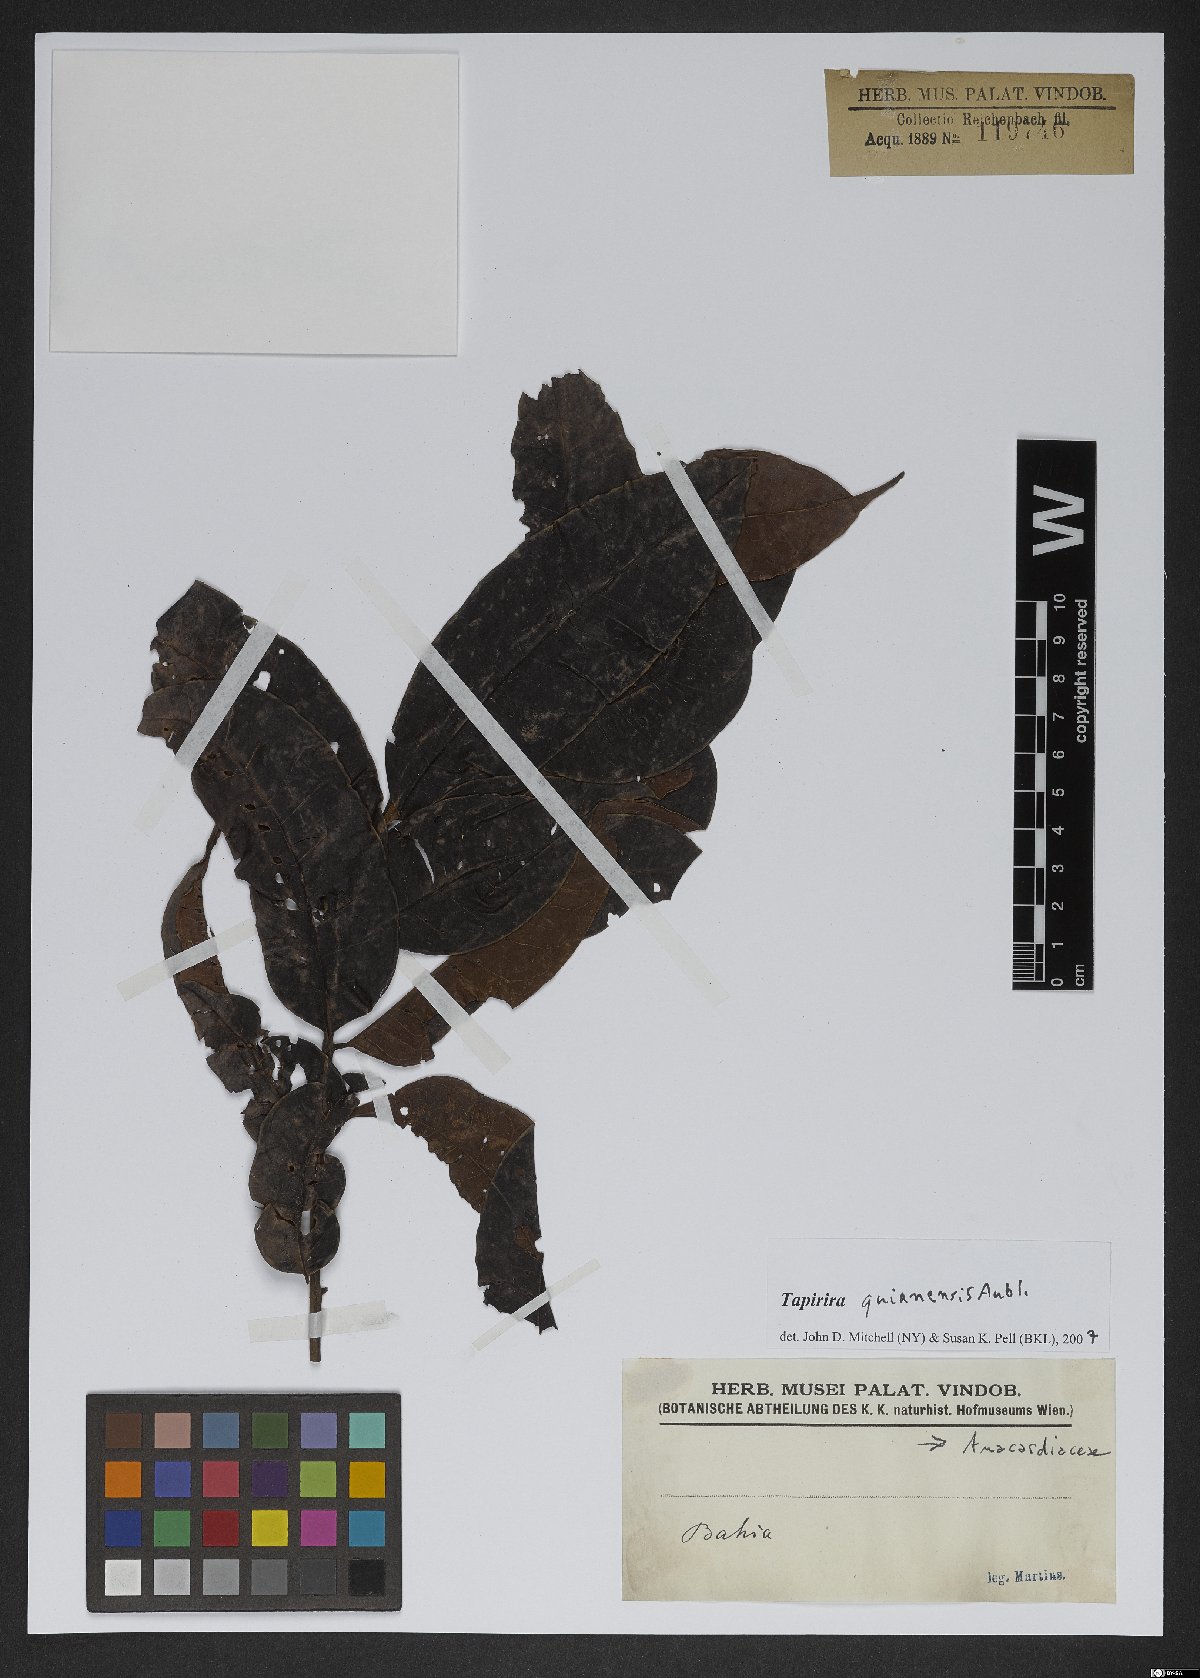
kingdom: Plantae
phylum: Tracheophyta
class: Magnoliopsida
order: Sapindales
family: Anacardiaceae
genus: Tapirira
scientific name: Tapirira guianensis
